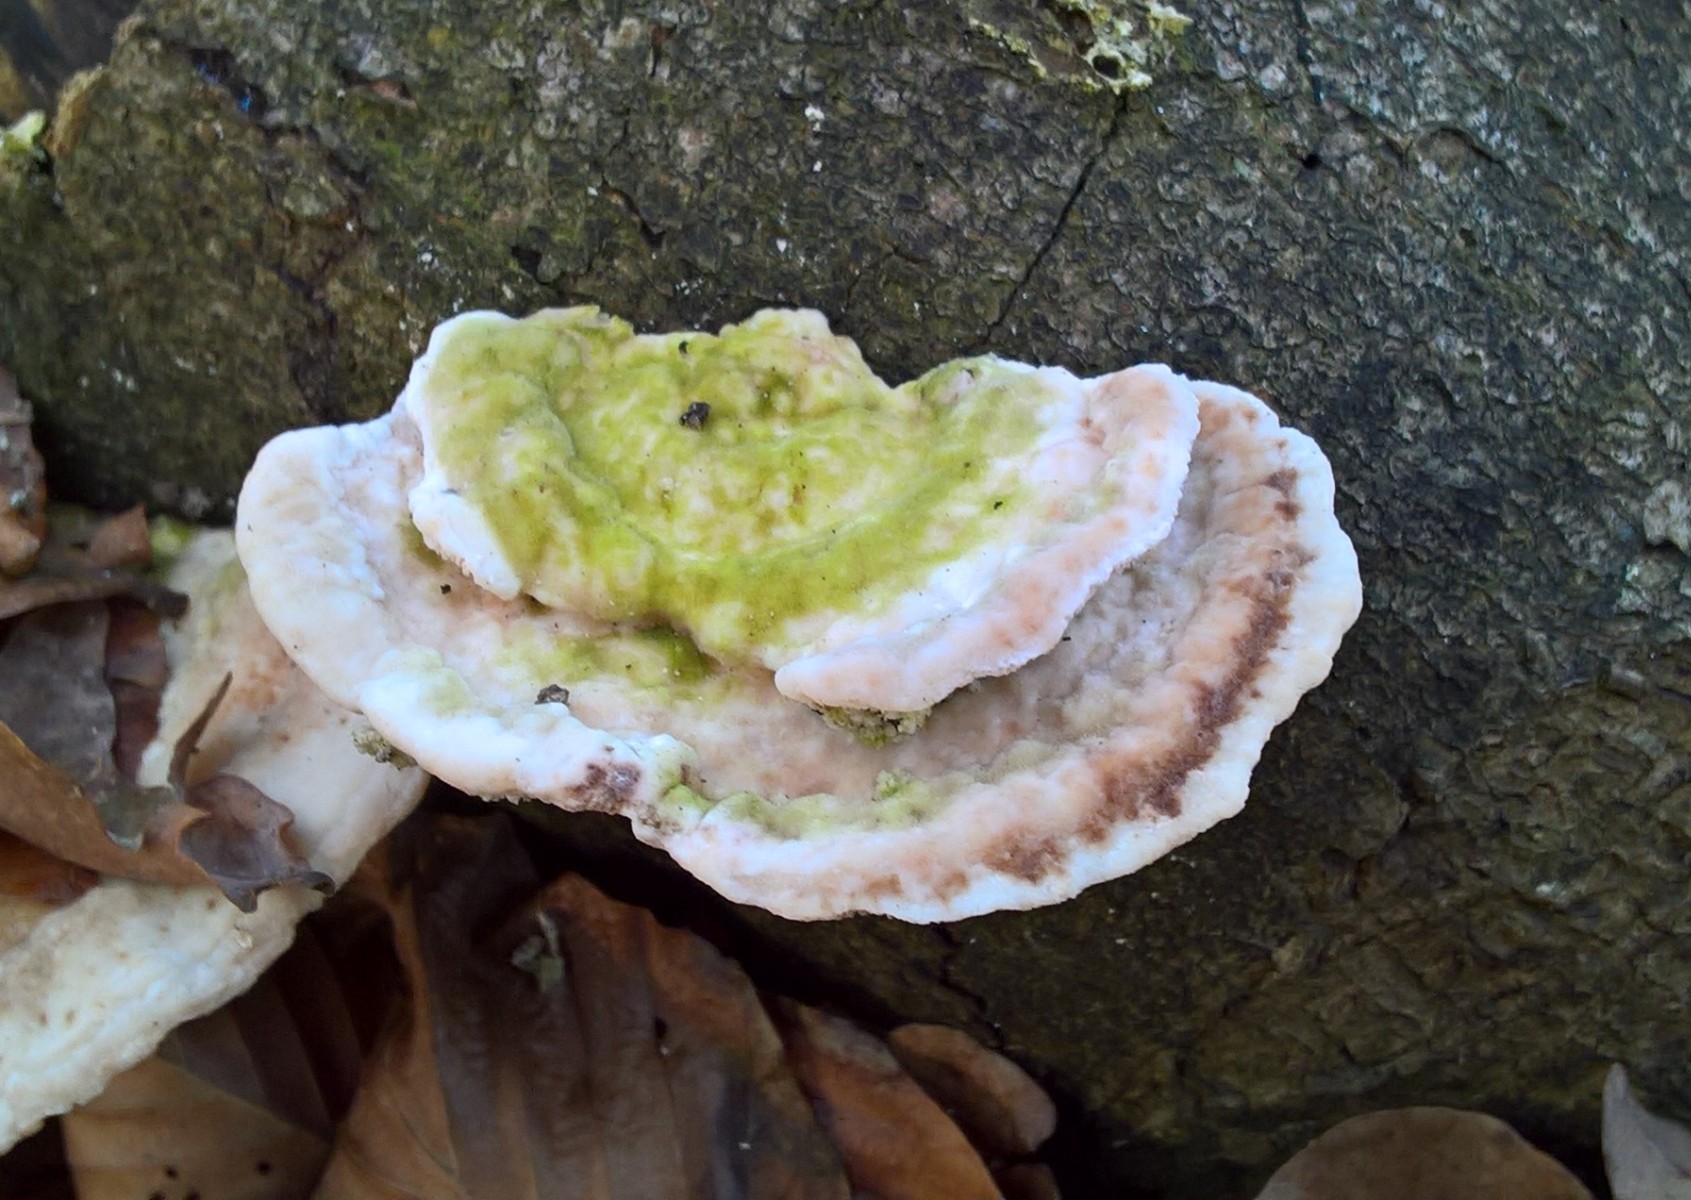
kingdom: Fungi
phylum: Basidiomycota
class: Agaricomycetes
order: Polyporales
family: Polyporaceae
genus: Trametes
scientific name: Trametes gibbosa
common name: puklet læderporesvamp
